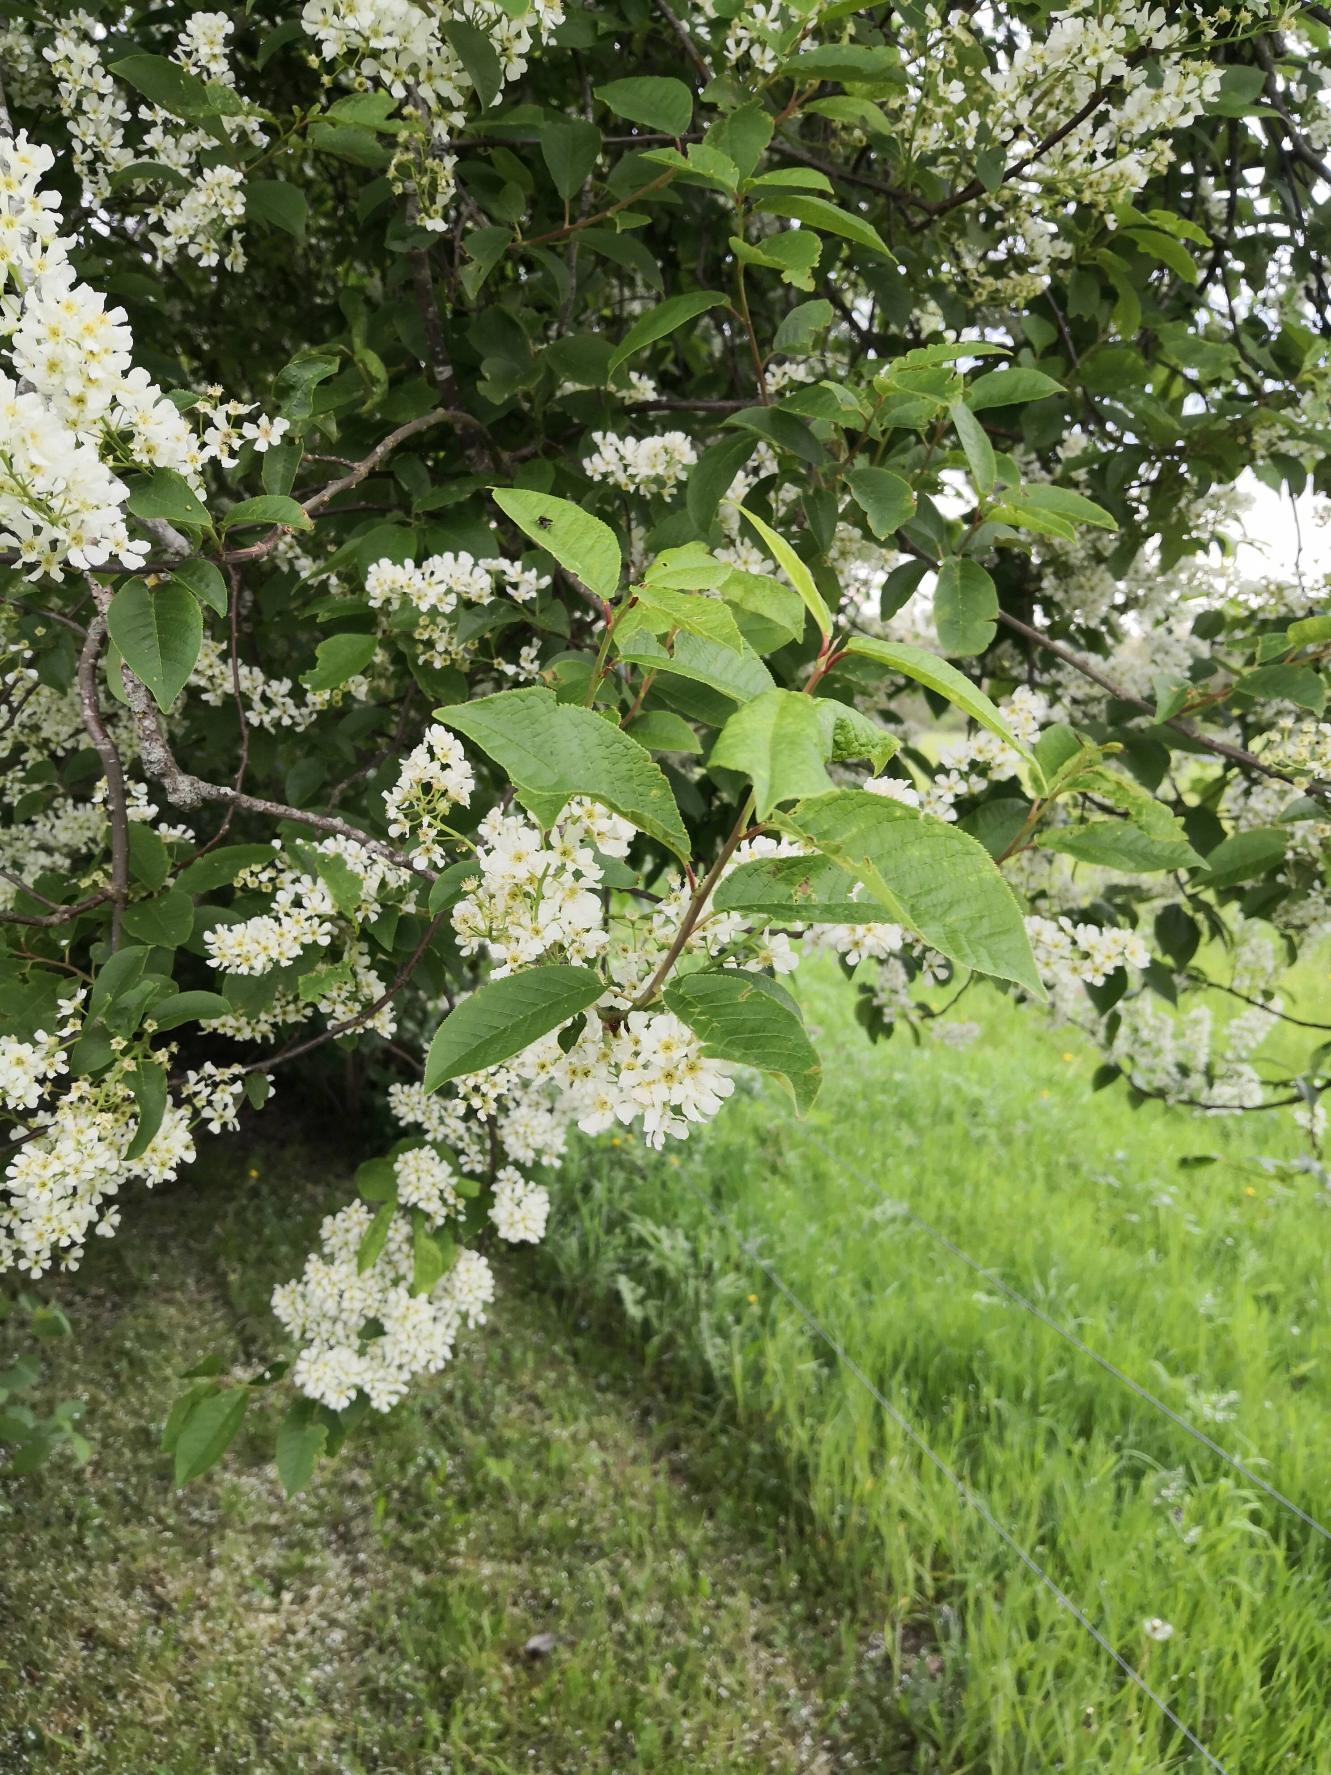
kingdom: Plantae
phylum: Tracheophyta
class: Magnoliopsida
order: Rosales
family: Rosaceae
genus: Prunus
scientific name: Prunus padus
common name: Almindelig hæg
